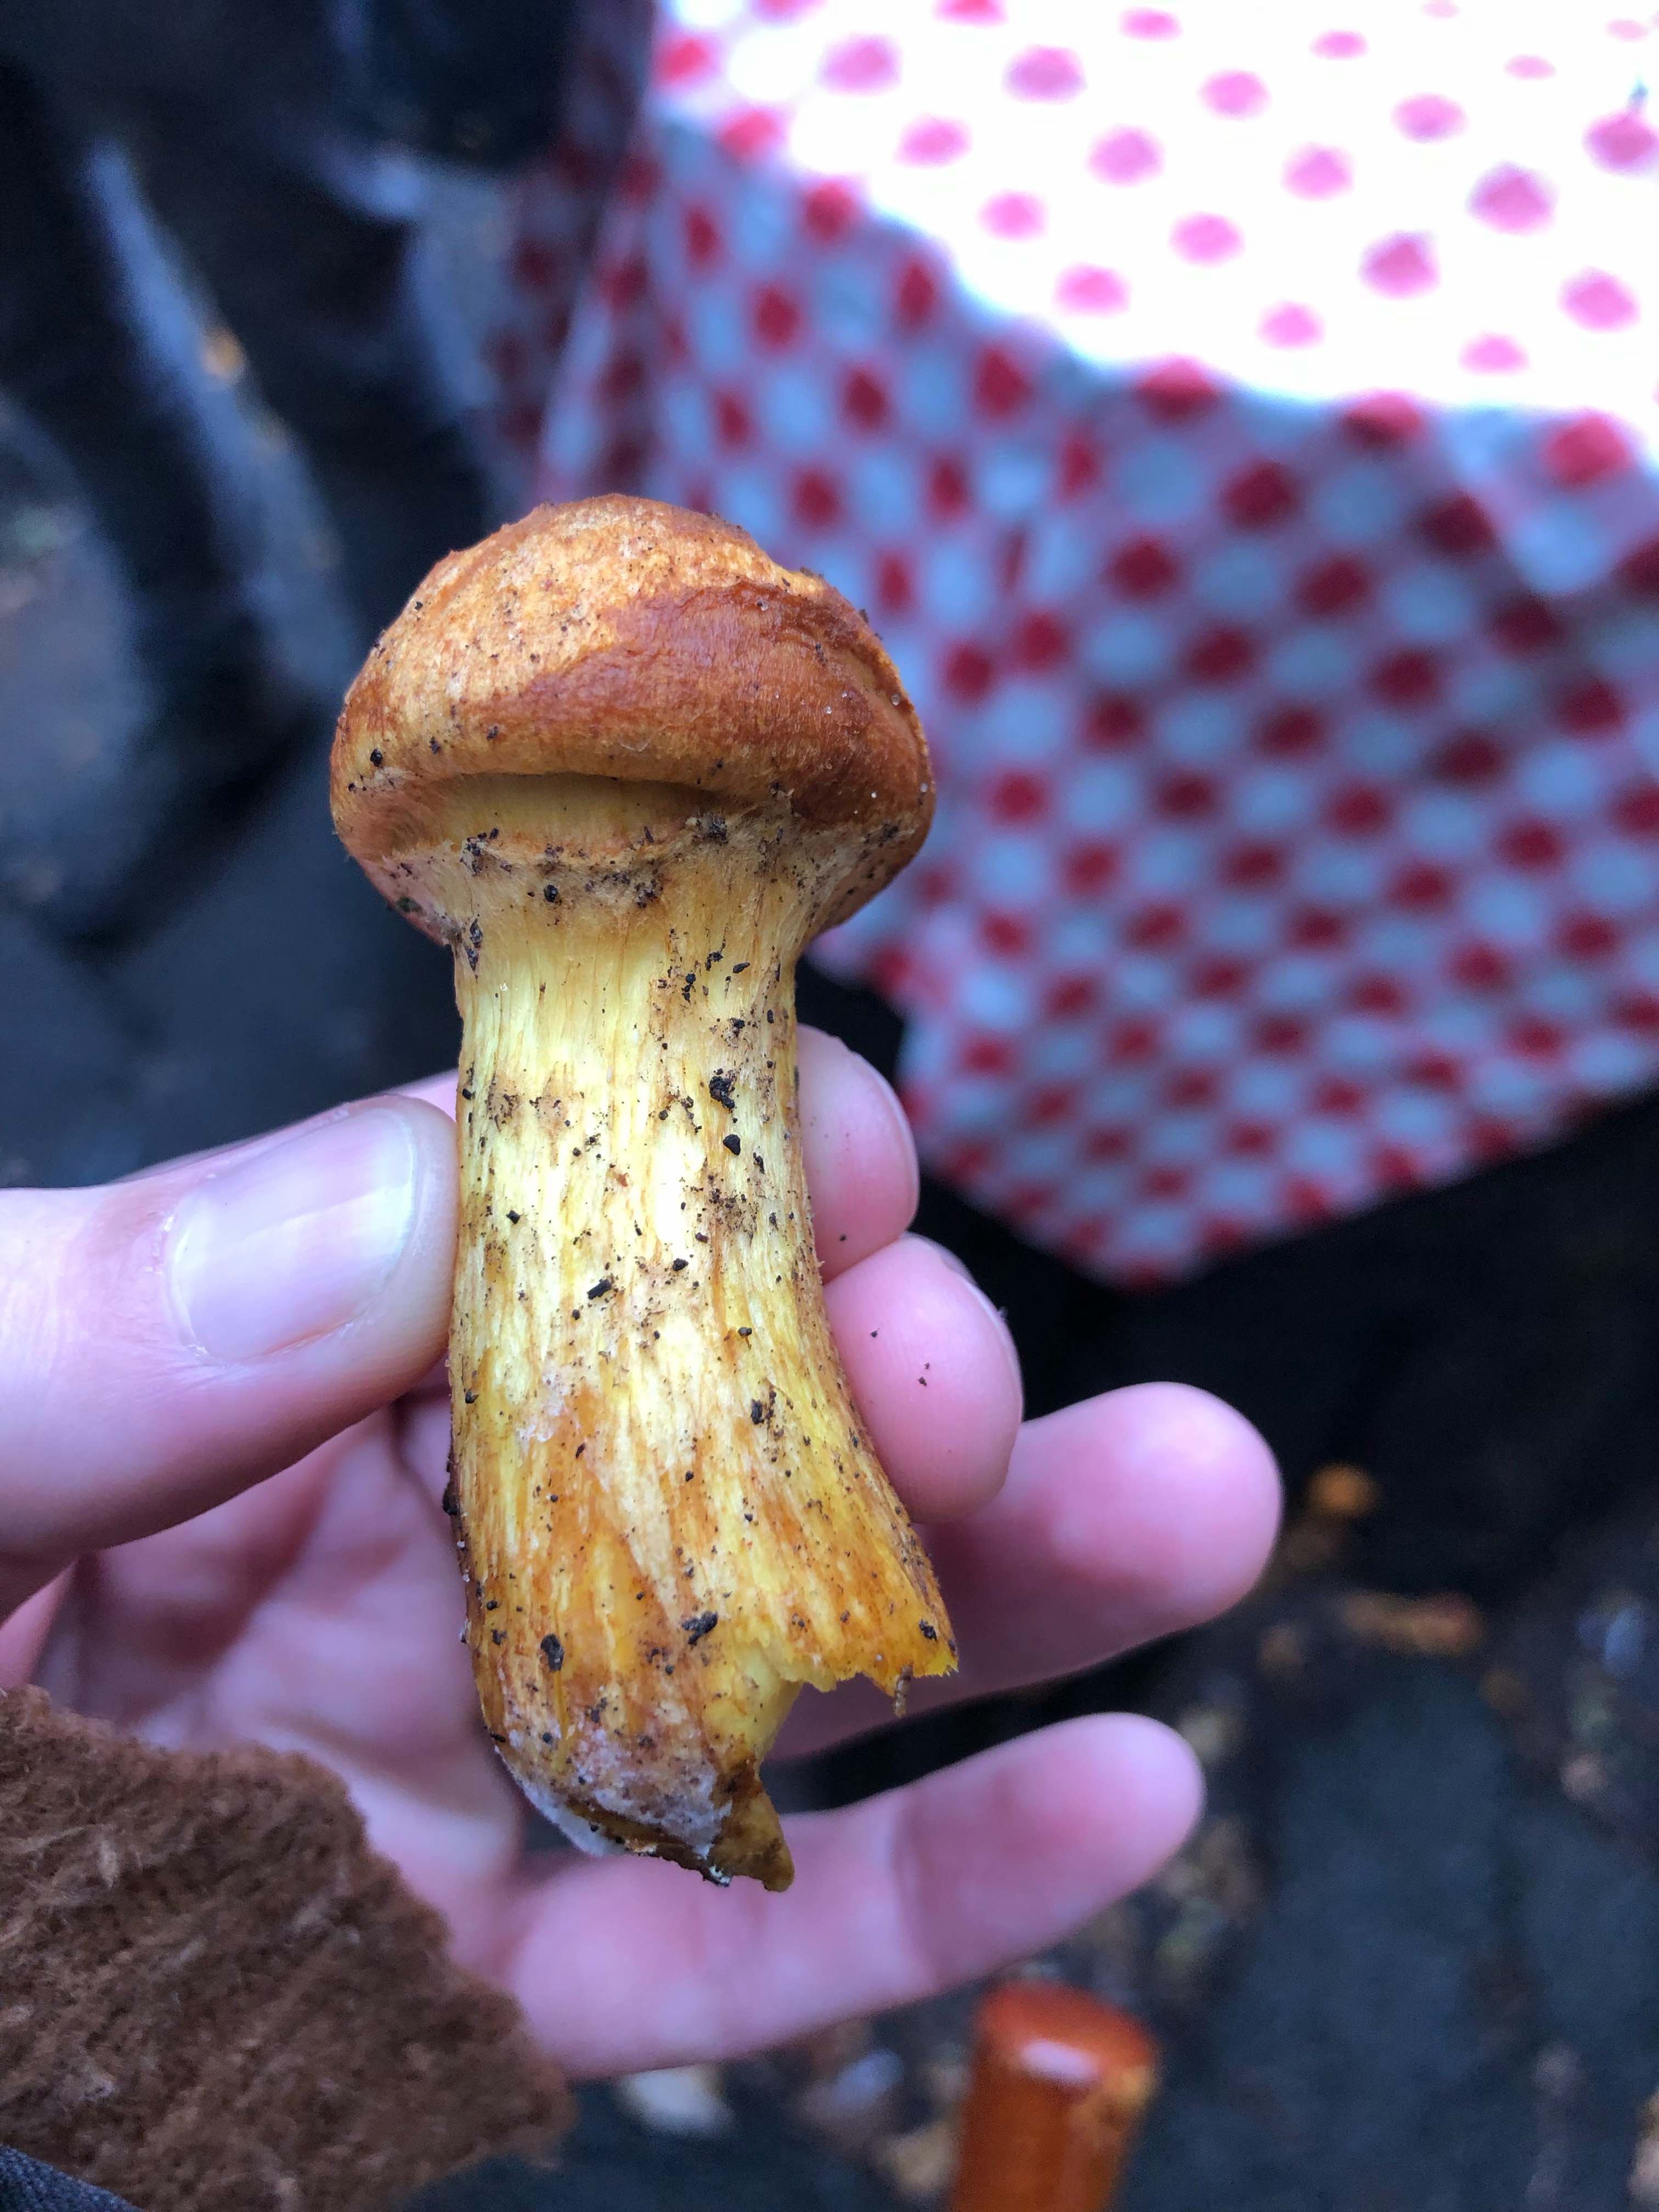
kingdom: Fungi
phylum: Basidiomycota
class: Agaricomycetes
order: Agaricales
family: Hymenogastraceae
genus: Gymnopilus
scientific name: Gymnopilus spectabilis
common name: fibret flammehat
